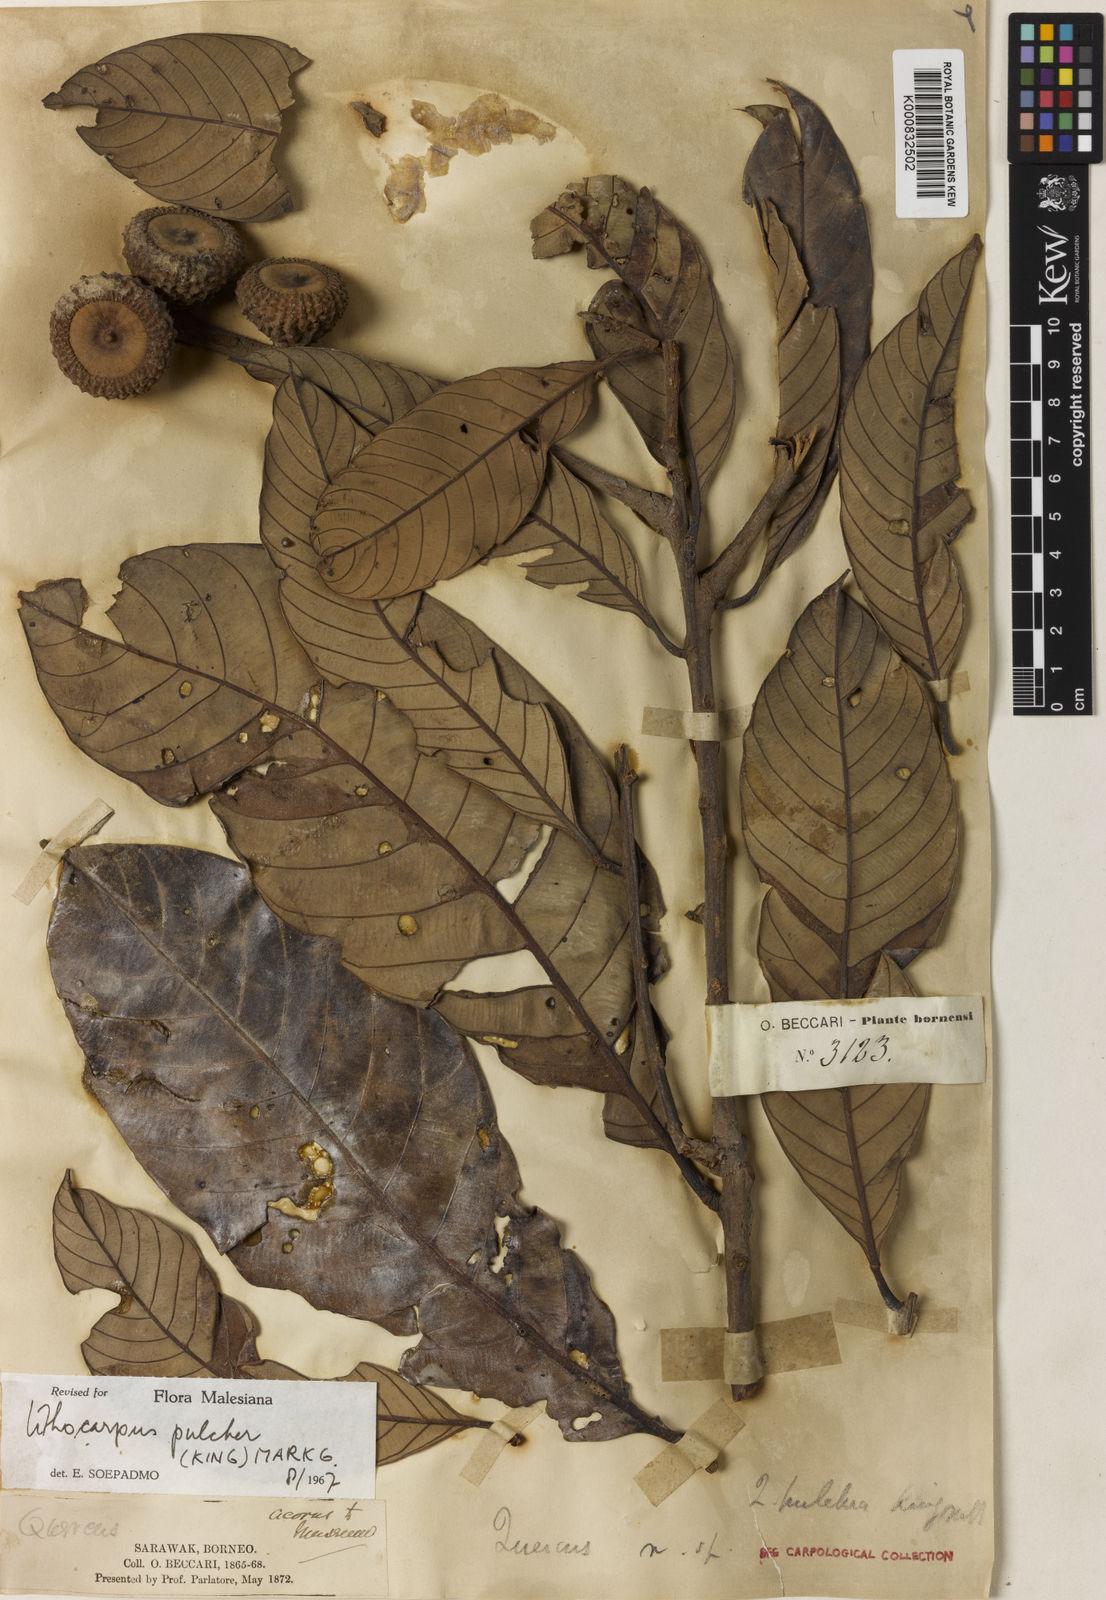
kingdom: Plantae
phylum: Tracheophyta
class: Magnoliopsida
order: Fagales
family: Fagaceae
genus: Lithocarpus
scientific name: Lithocarpus pulcher
